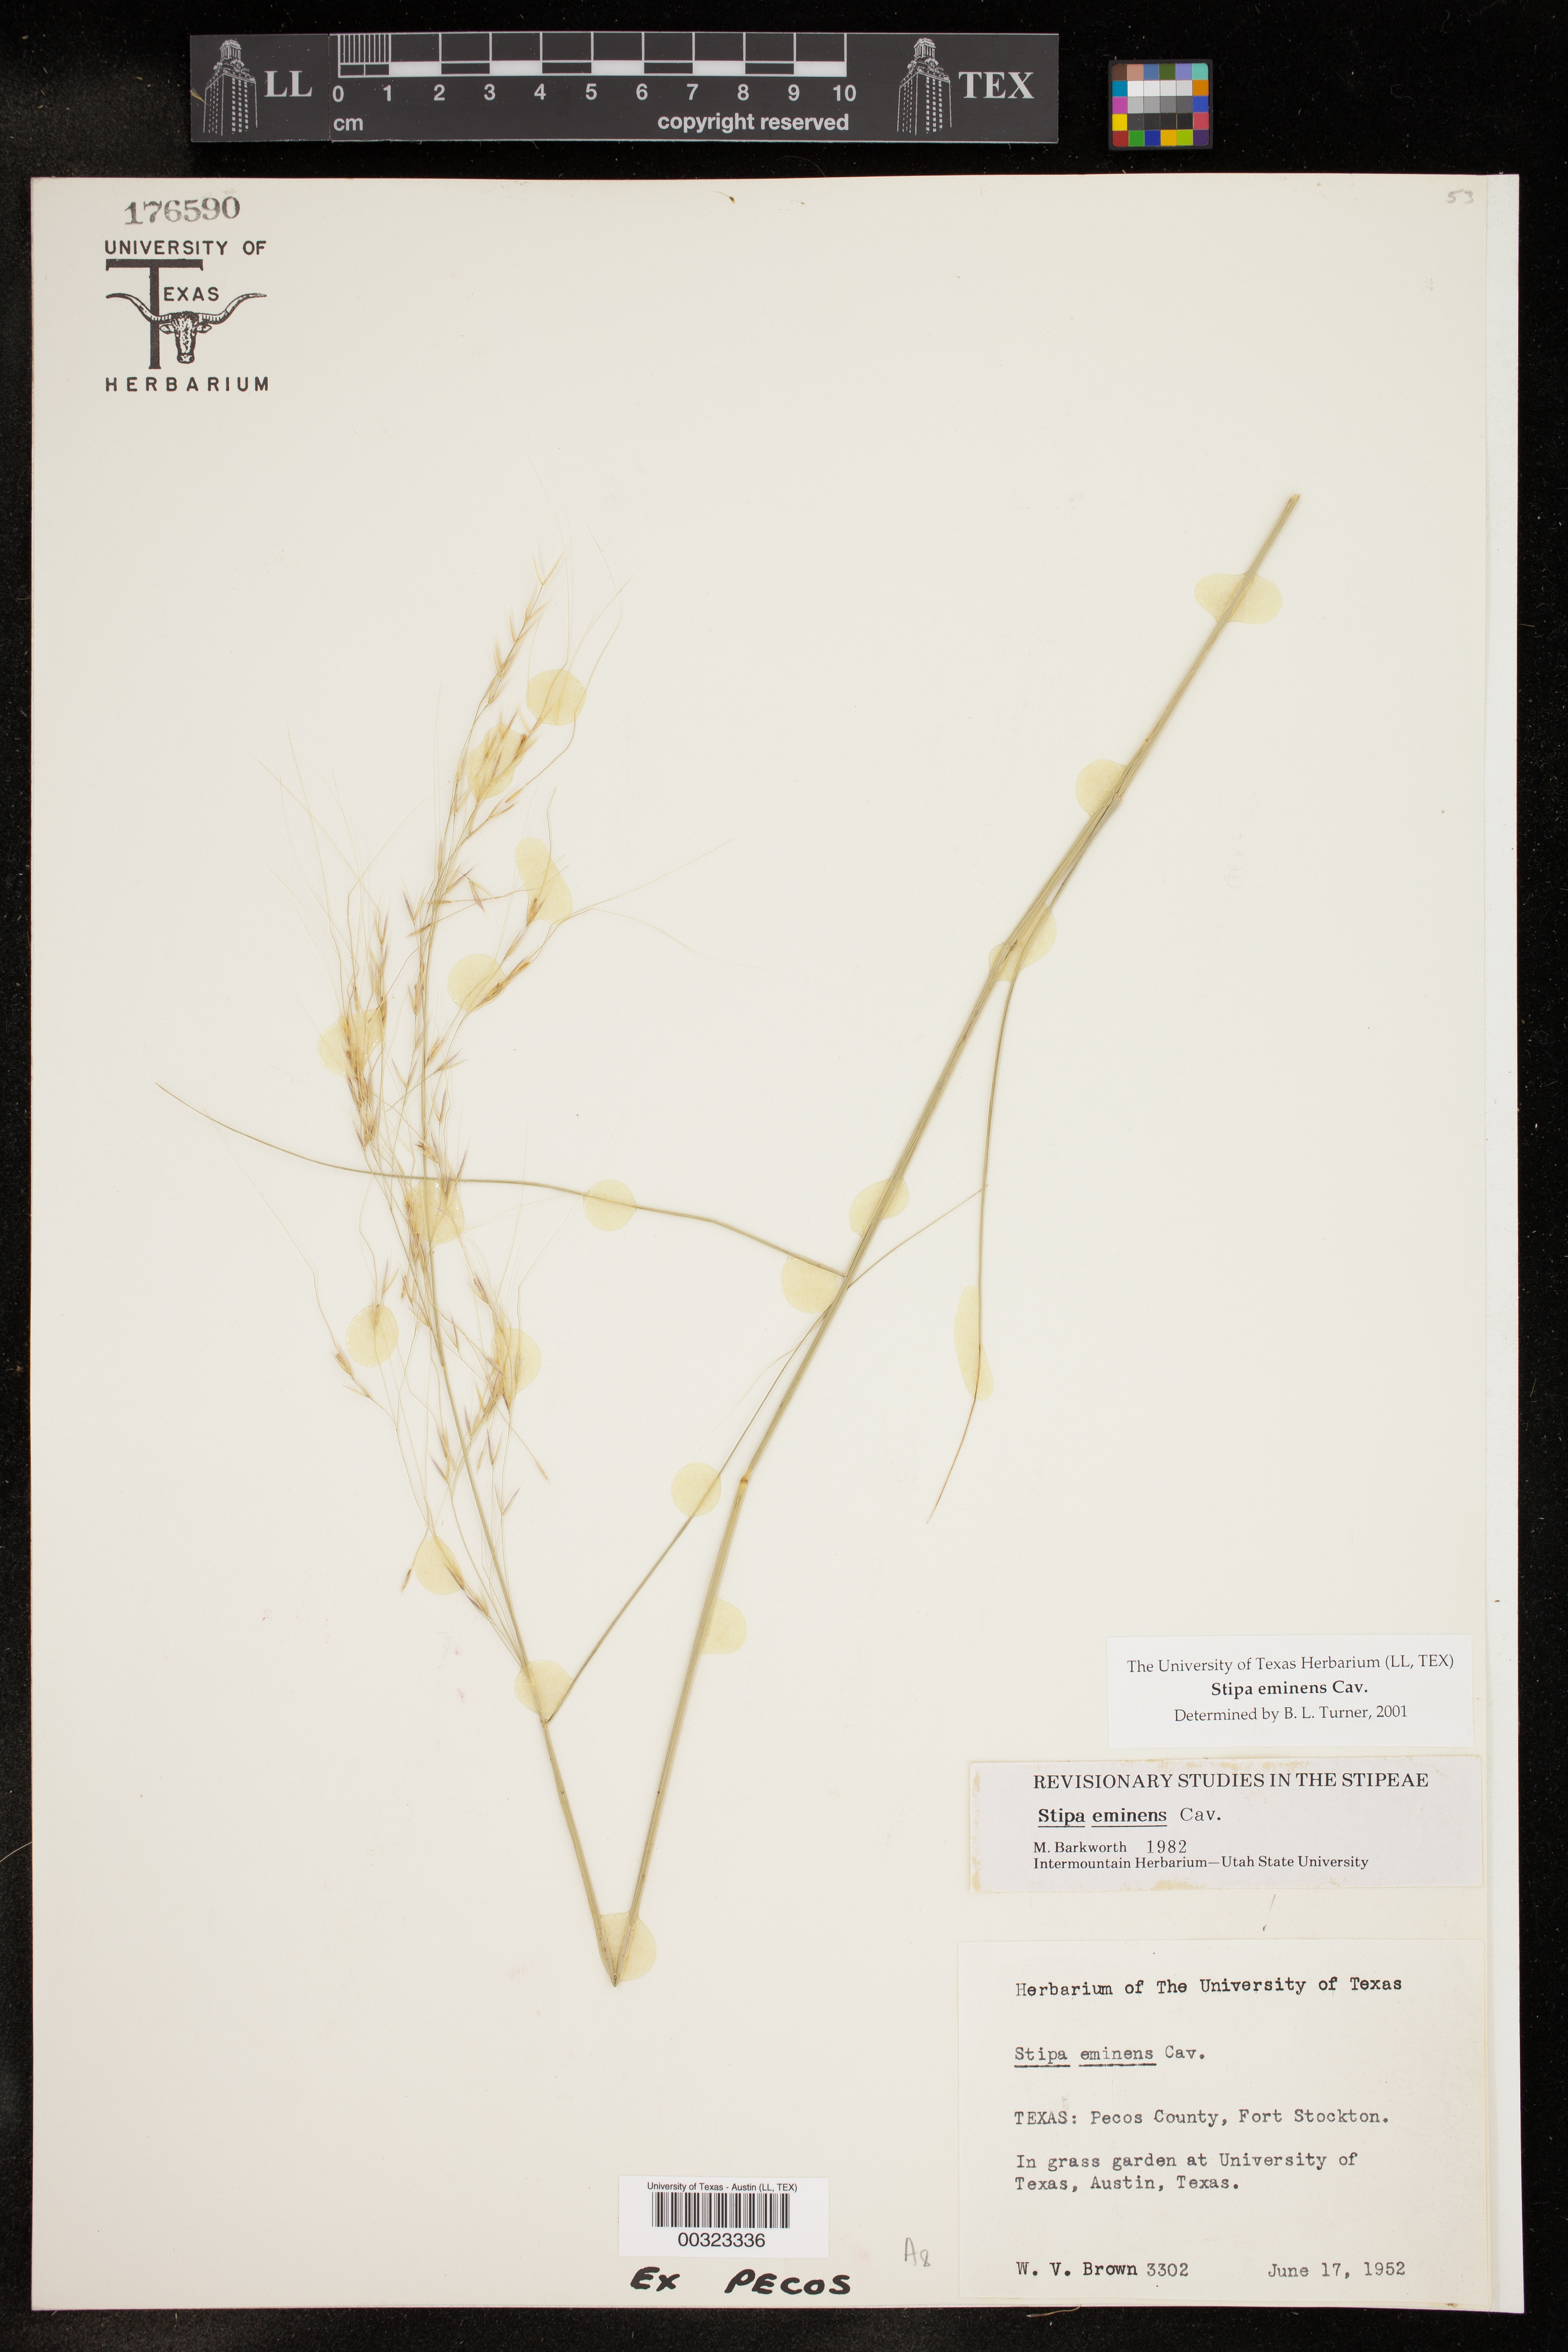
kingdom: Plantae
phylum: Tracheophyta
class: Liliopsida
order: Poales
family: Poaceae
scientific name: Poaceae
